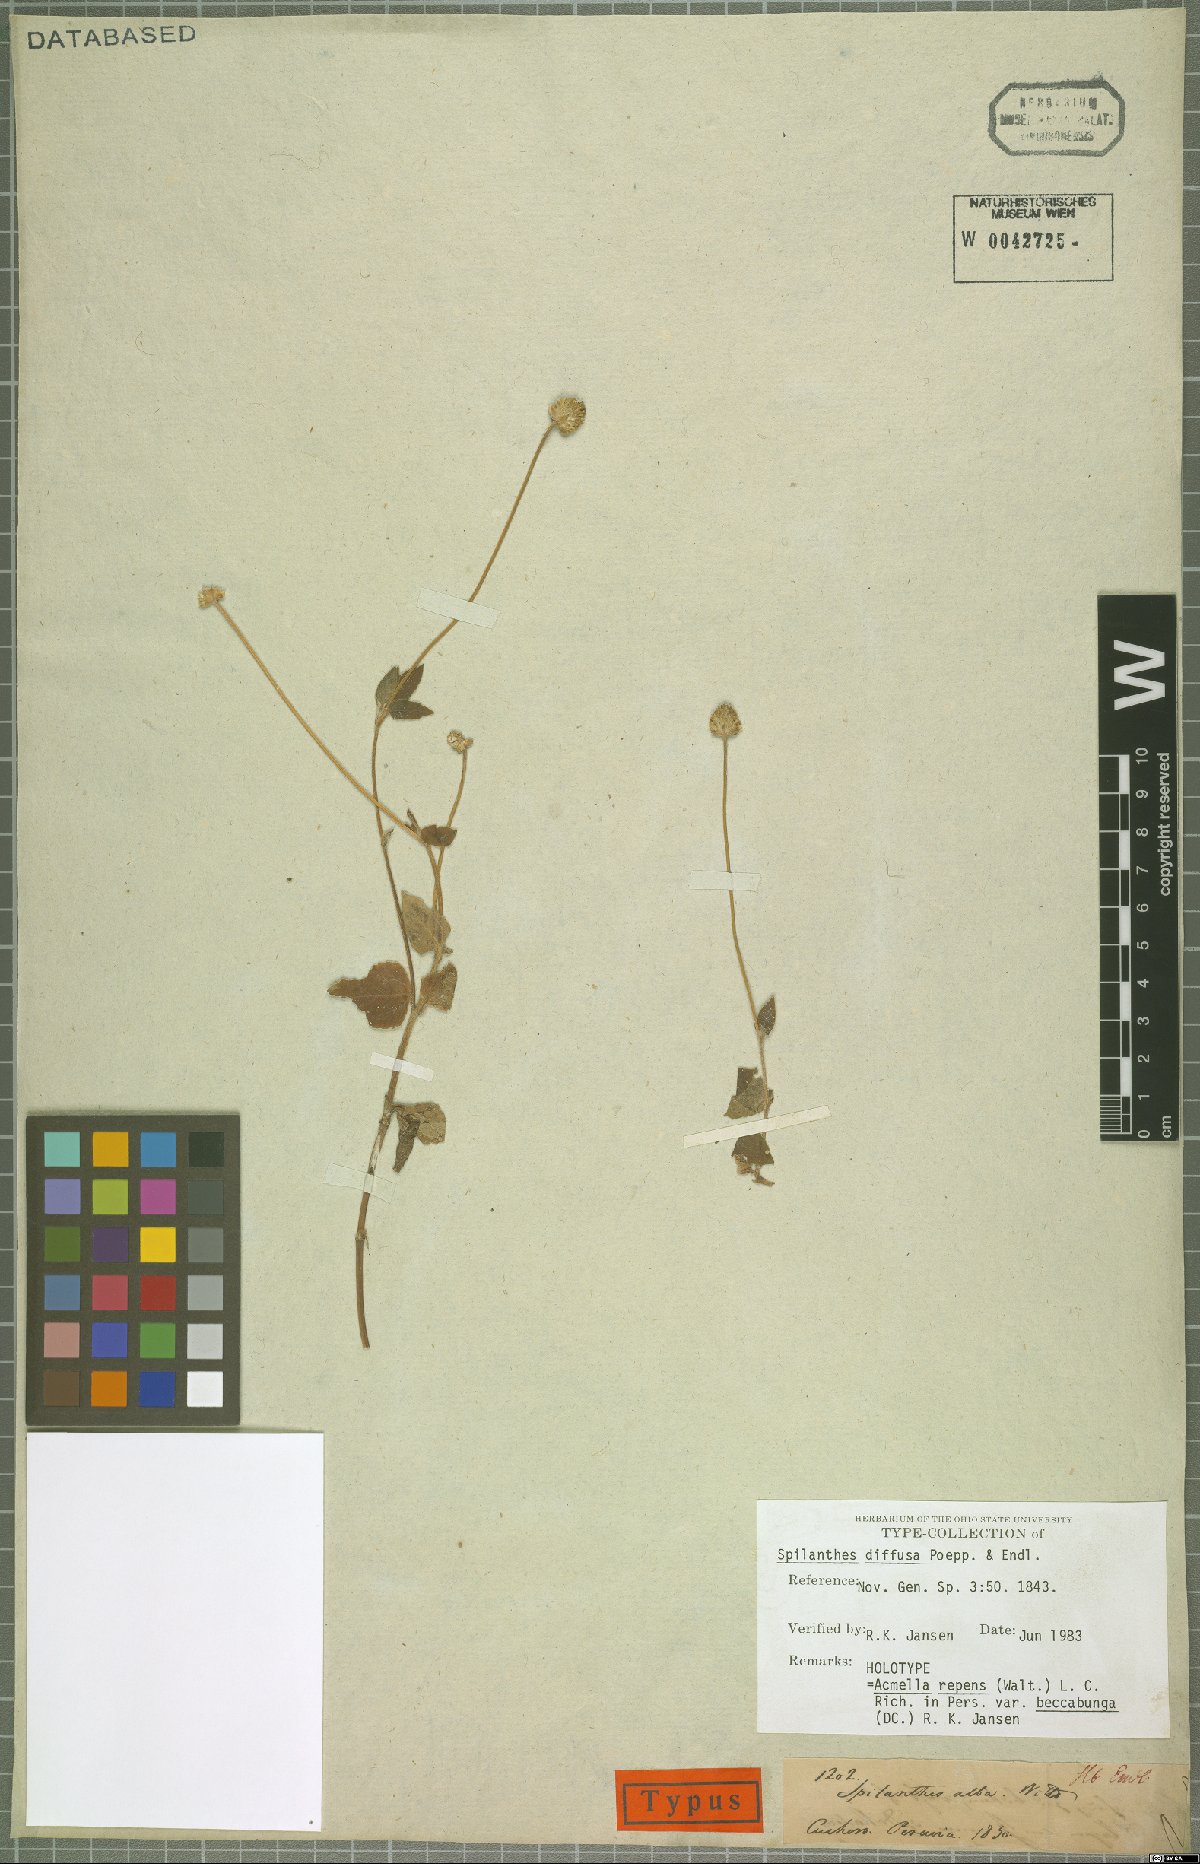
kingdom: Plantae
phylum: Tracheophyta
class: Magnoliopsida
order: Asterales
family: Asteraceae
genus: Acmella
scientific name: Acmella repens
